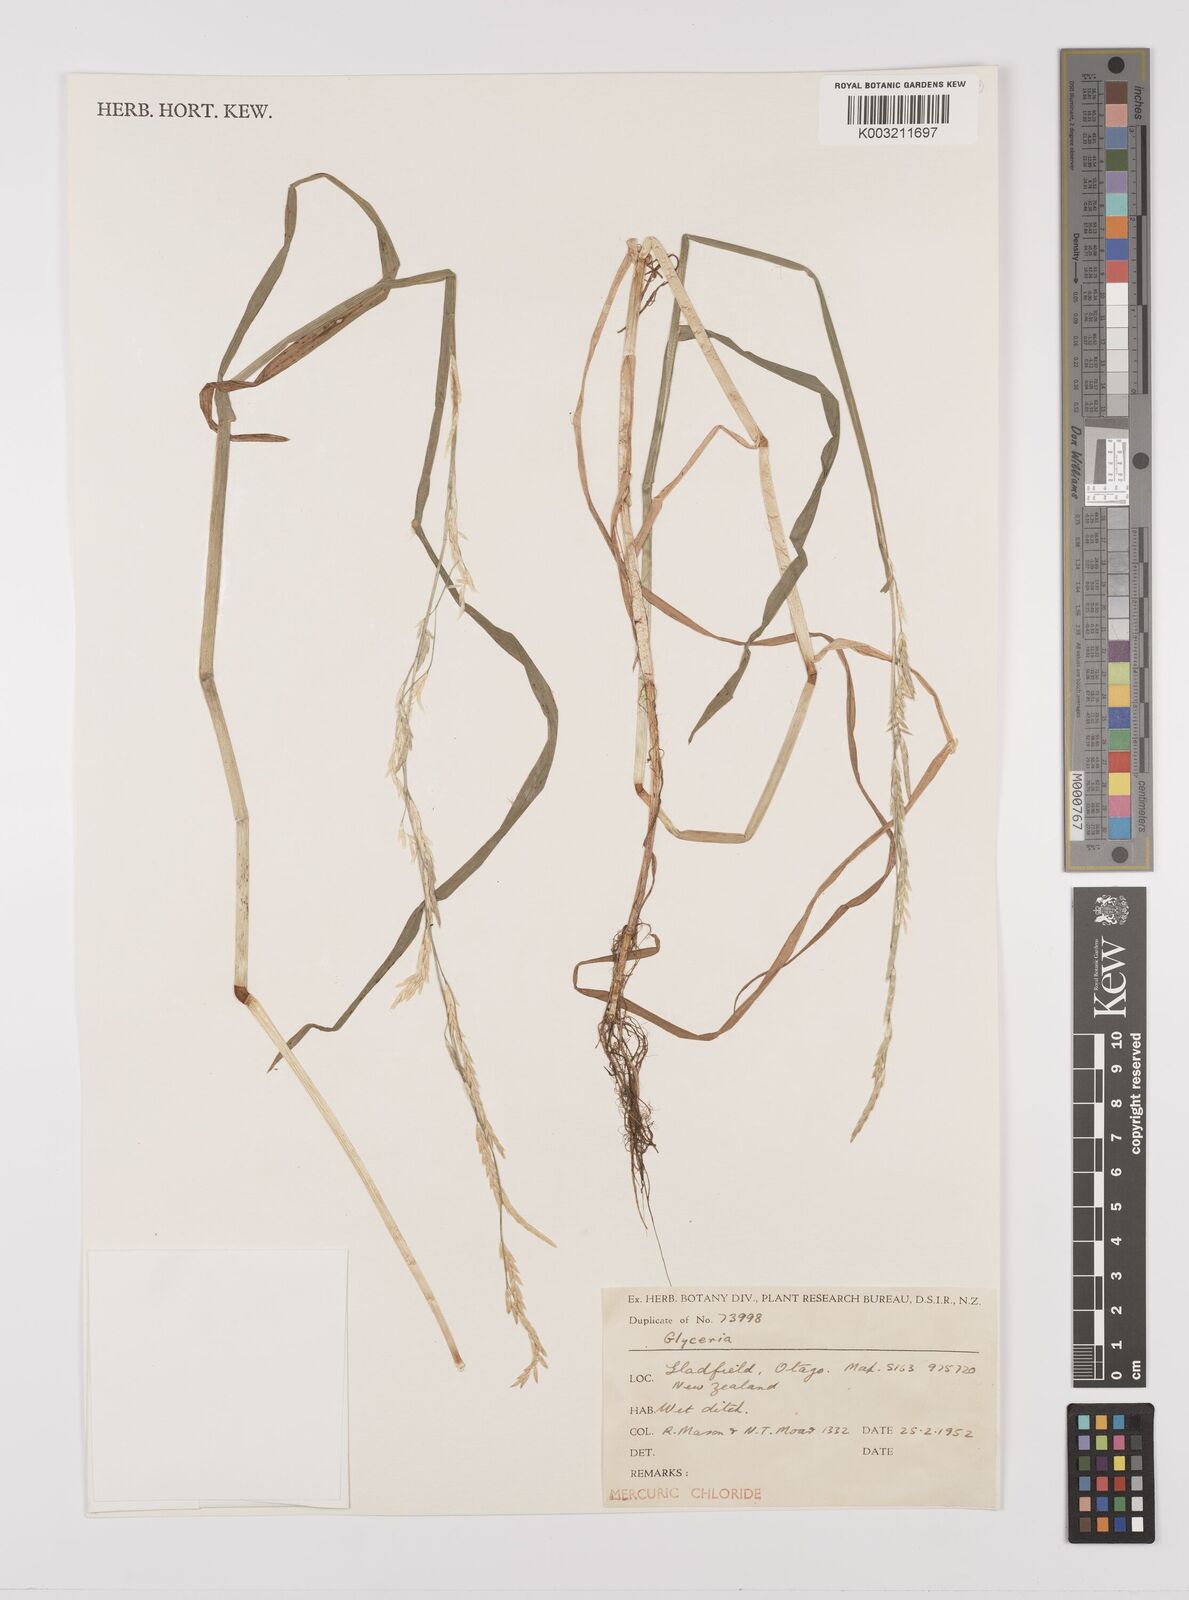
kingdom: Plantae
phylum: Tracheophyta
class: Liliopsida
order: Poales
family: Poaceae
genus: Glyceria
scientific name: Glyceria fluitans
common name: Floating sweet-grass
